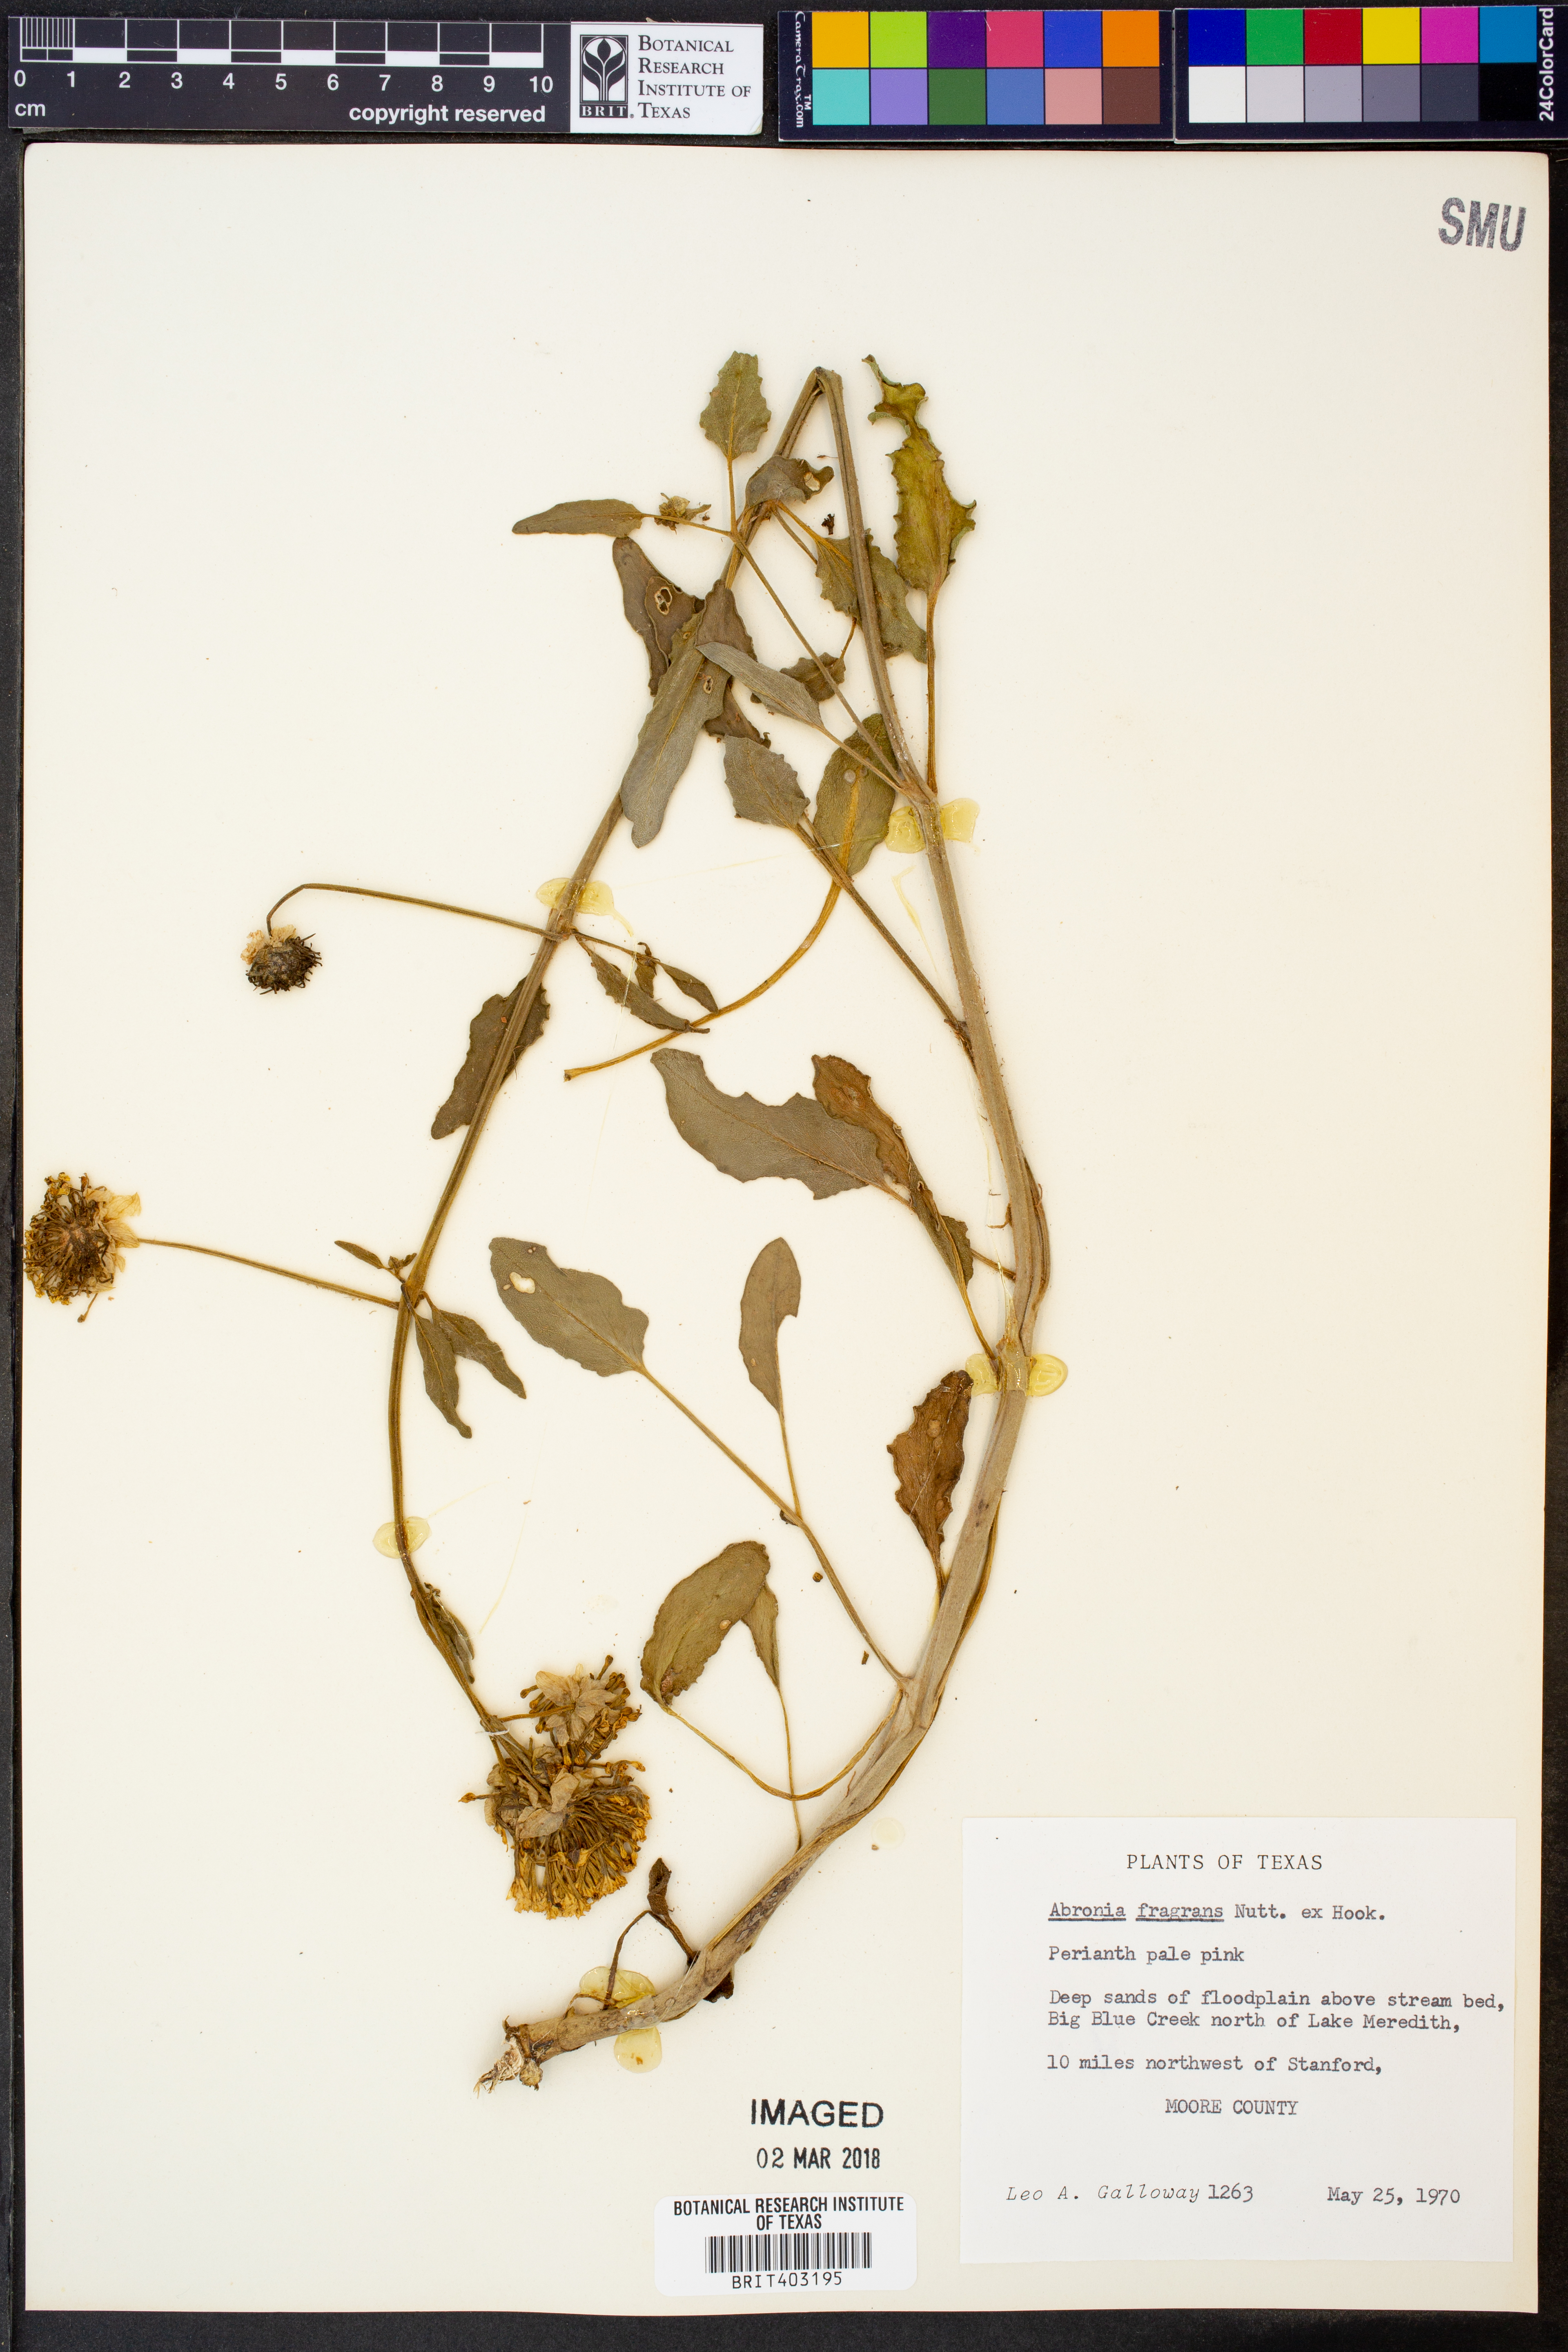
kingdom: Plantae
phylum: Tracheophyta
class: Magnoliopsida
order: Caryophyllales
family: Nyctaginaceae
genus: Abronia
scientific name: Abronia fragrans
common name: Fragrant sand-verbena
